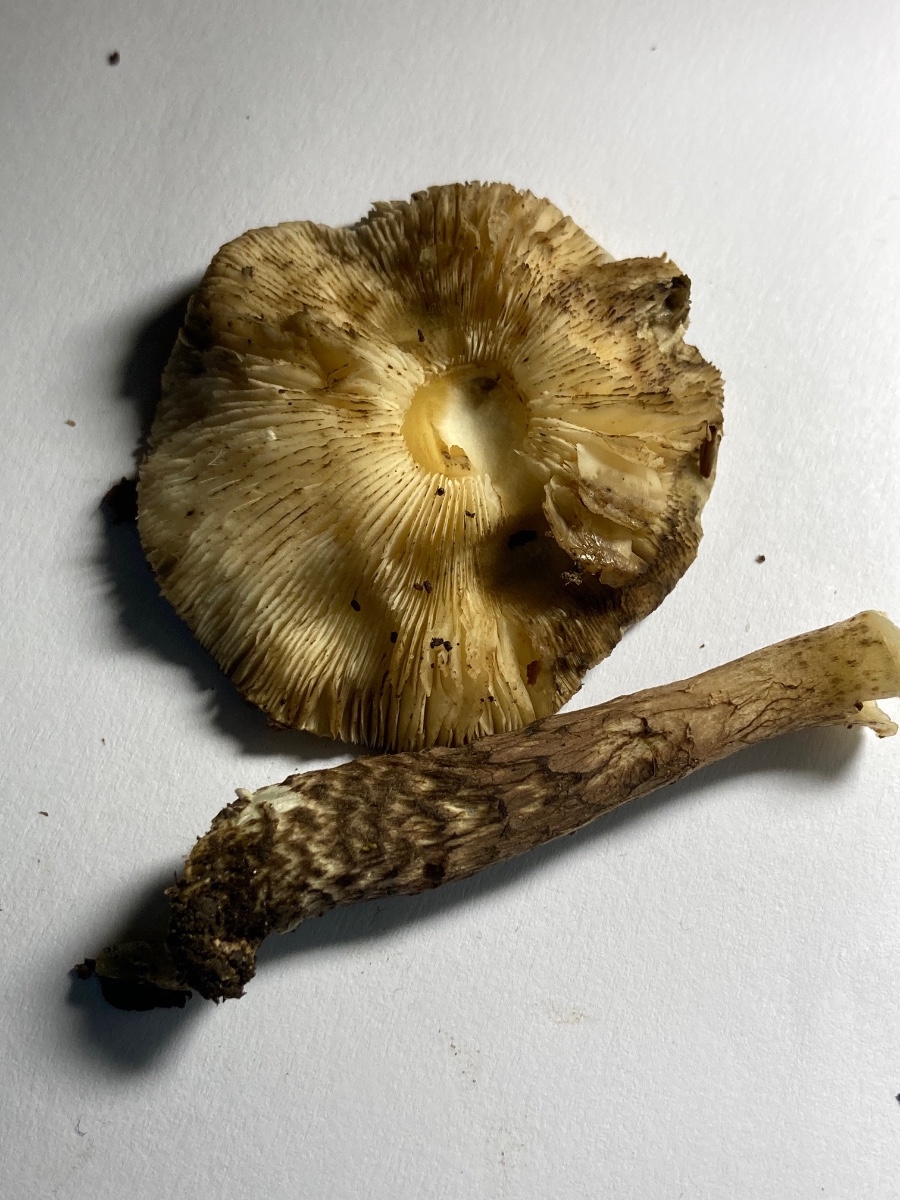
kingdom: Fungi
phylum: Basidiomycota
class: Agaricomycetes
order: Agaricales
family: Agaricaceae
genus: Lepiota
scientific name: Lepiota fuscovinacea
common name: vinrød parasolhat
